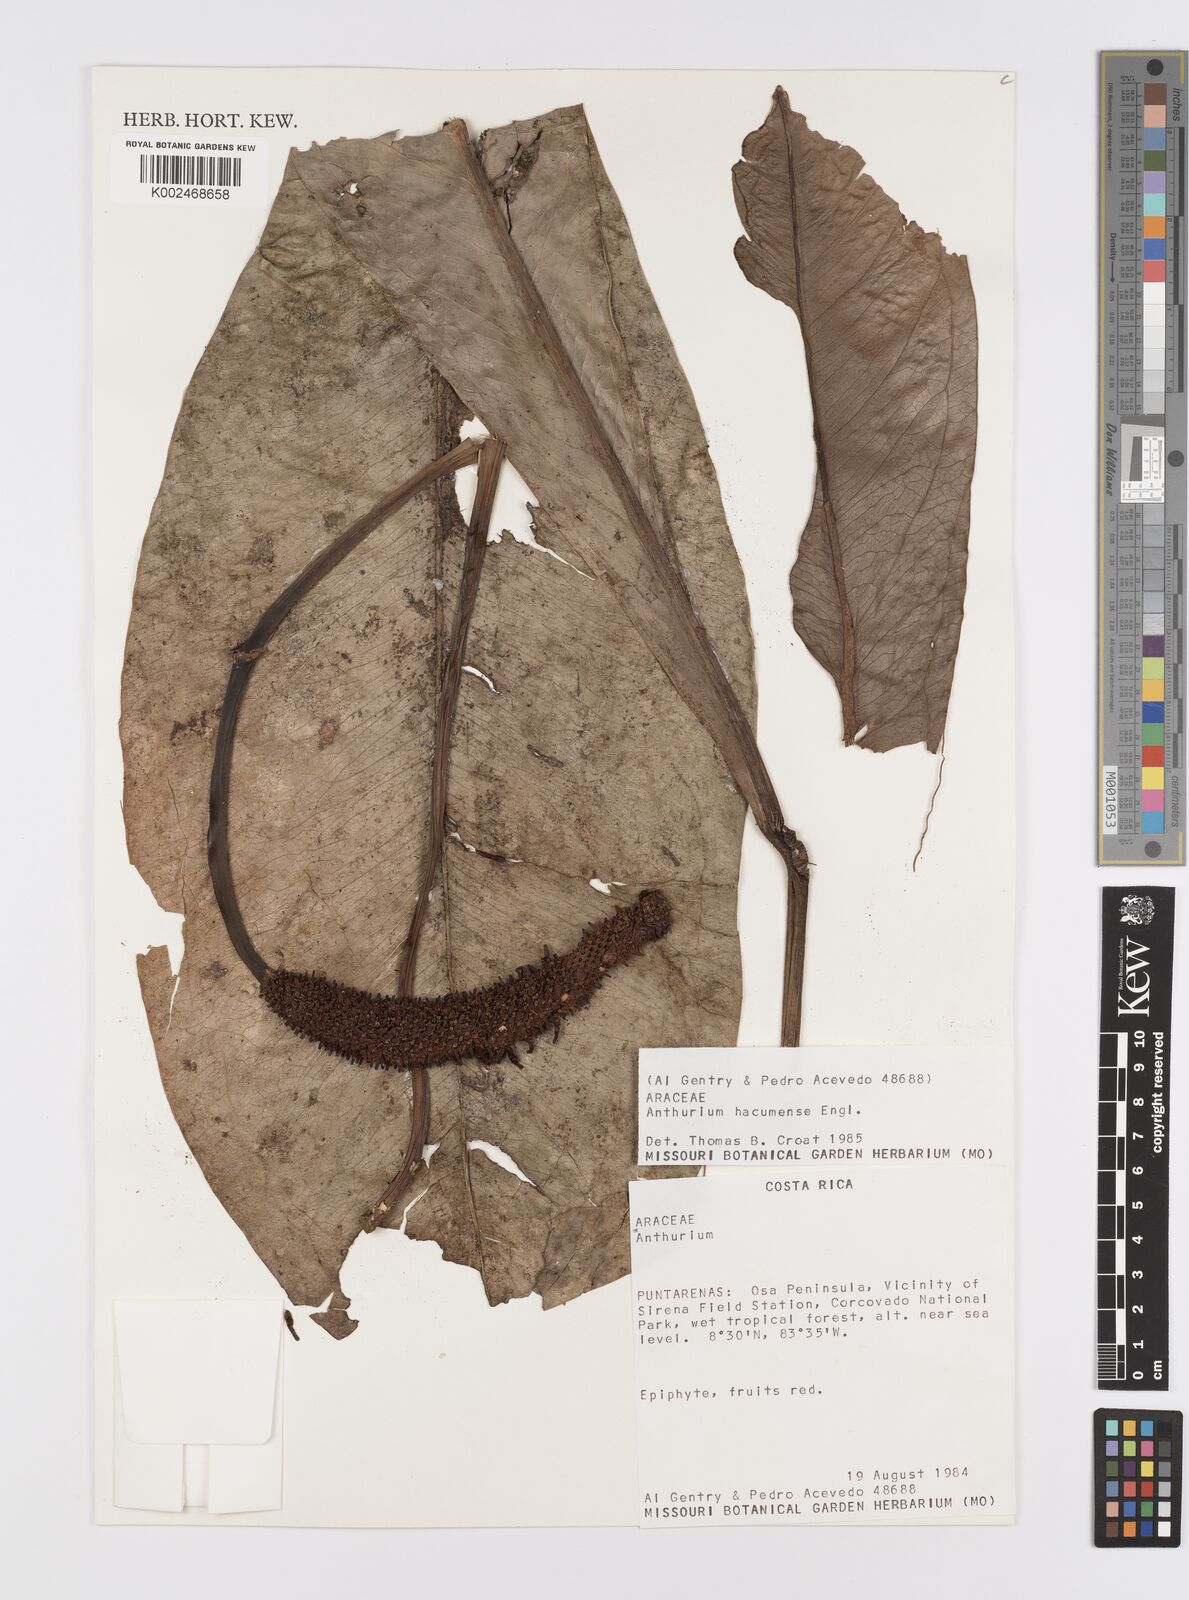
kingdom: Plantae
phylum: Tracheophyta
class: Liliopsida
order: Alismatales
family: Araceae
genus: Anthurium
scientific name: Anthurium hacumense
